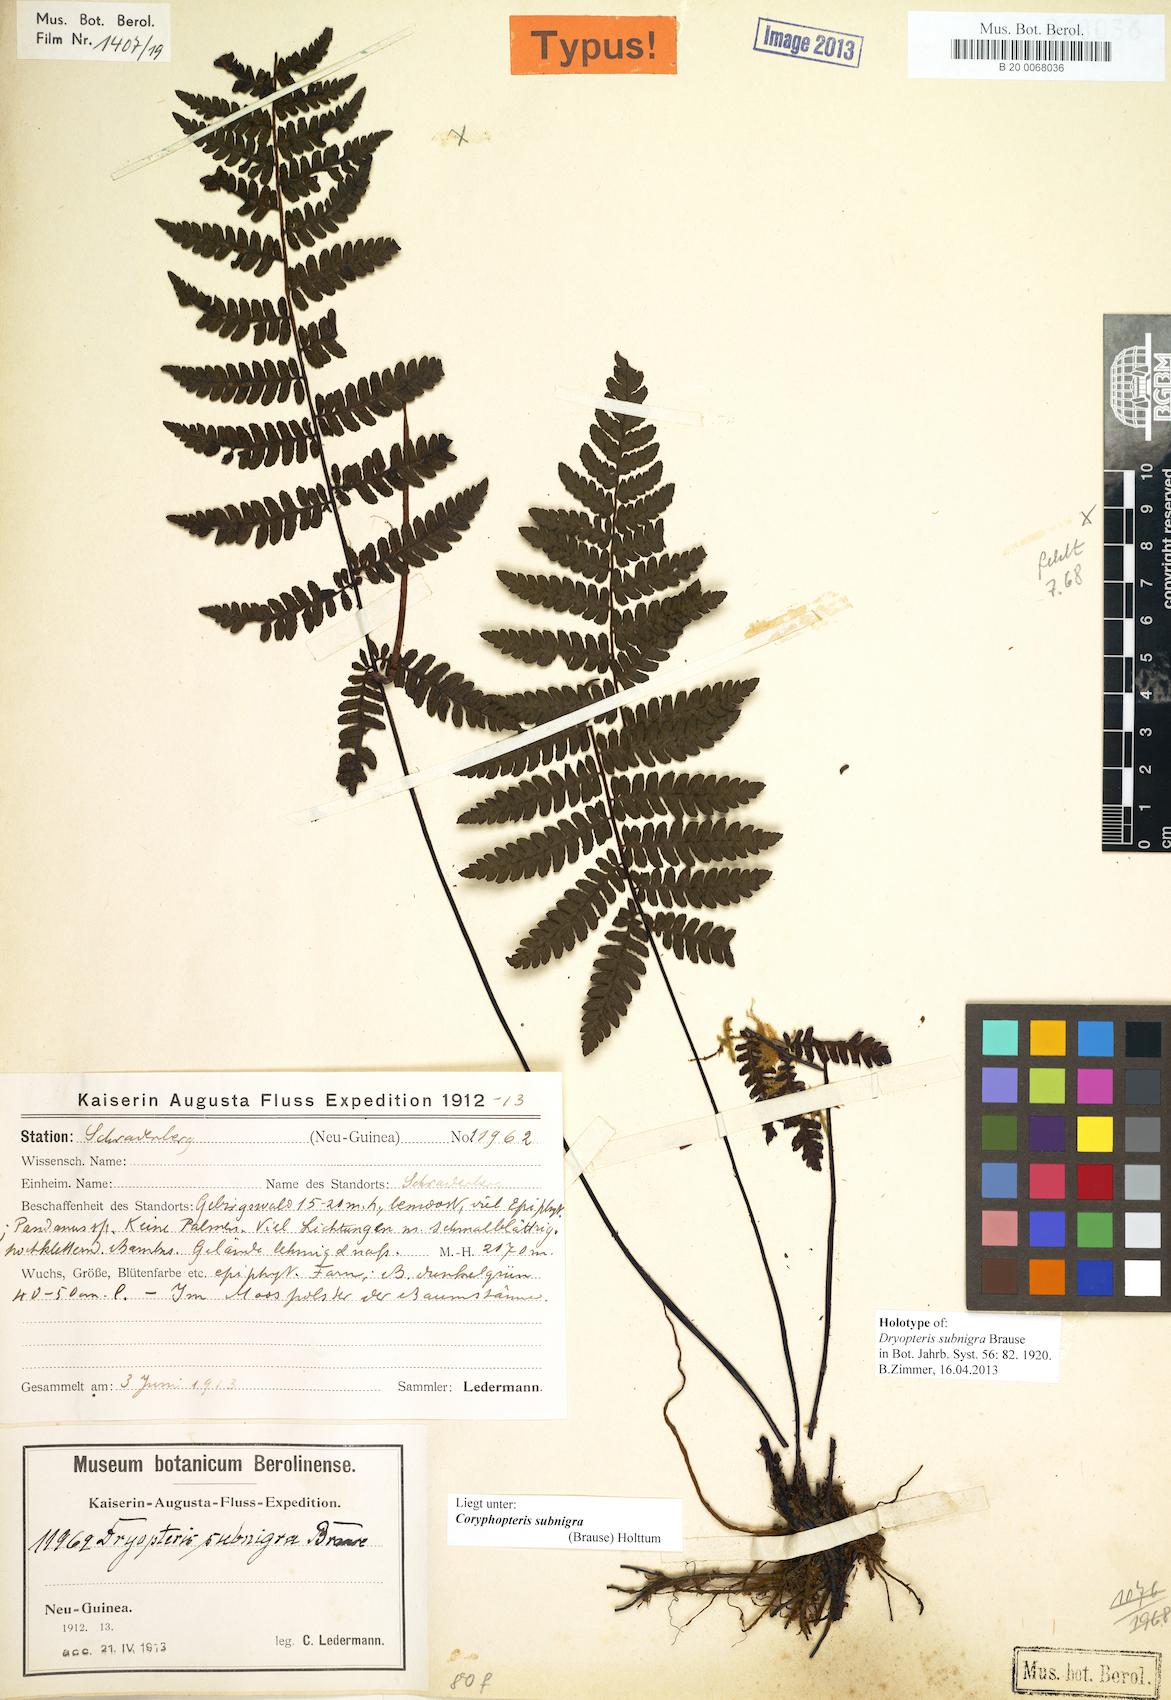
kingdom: Plantae
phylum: Tracheophyta
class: Polypodiopsida
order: Polypodiales
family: Thelypteridaceae
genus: Coryphopteris
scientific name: Coryphopteris subnigra
